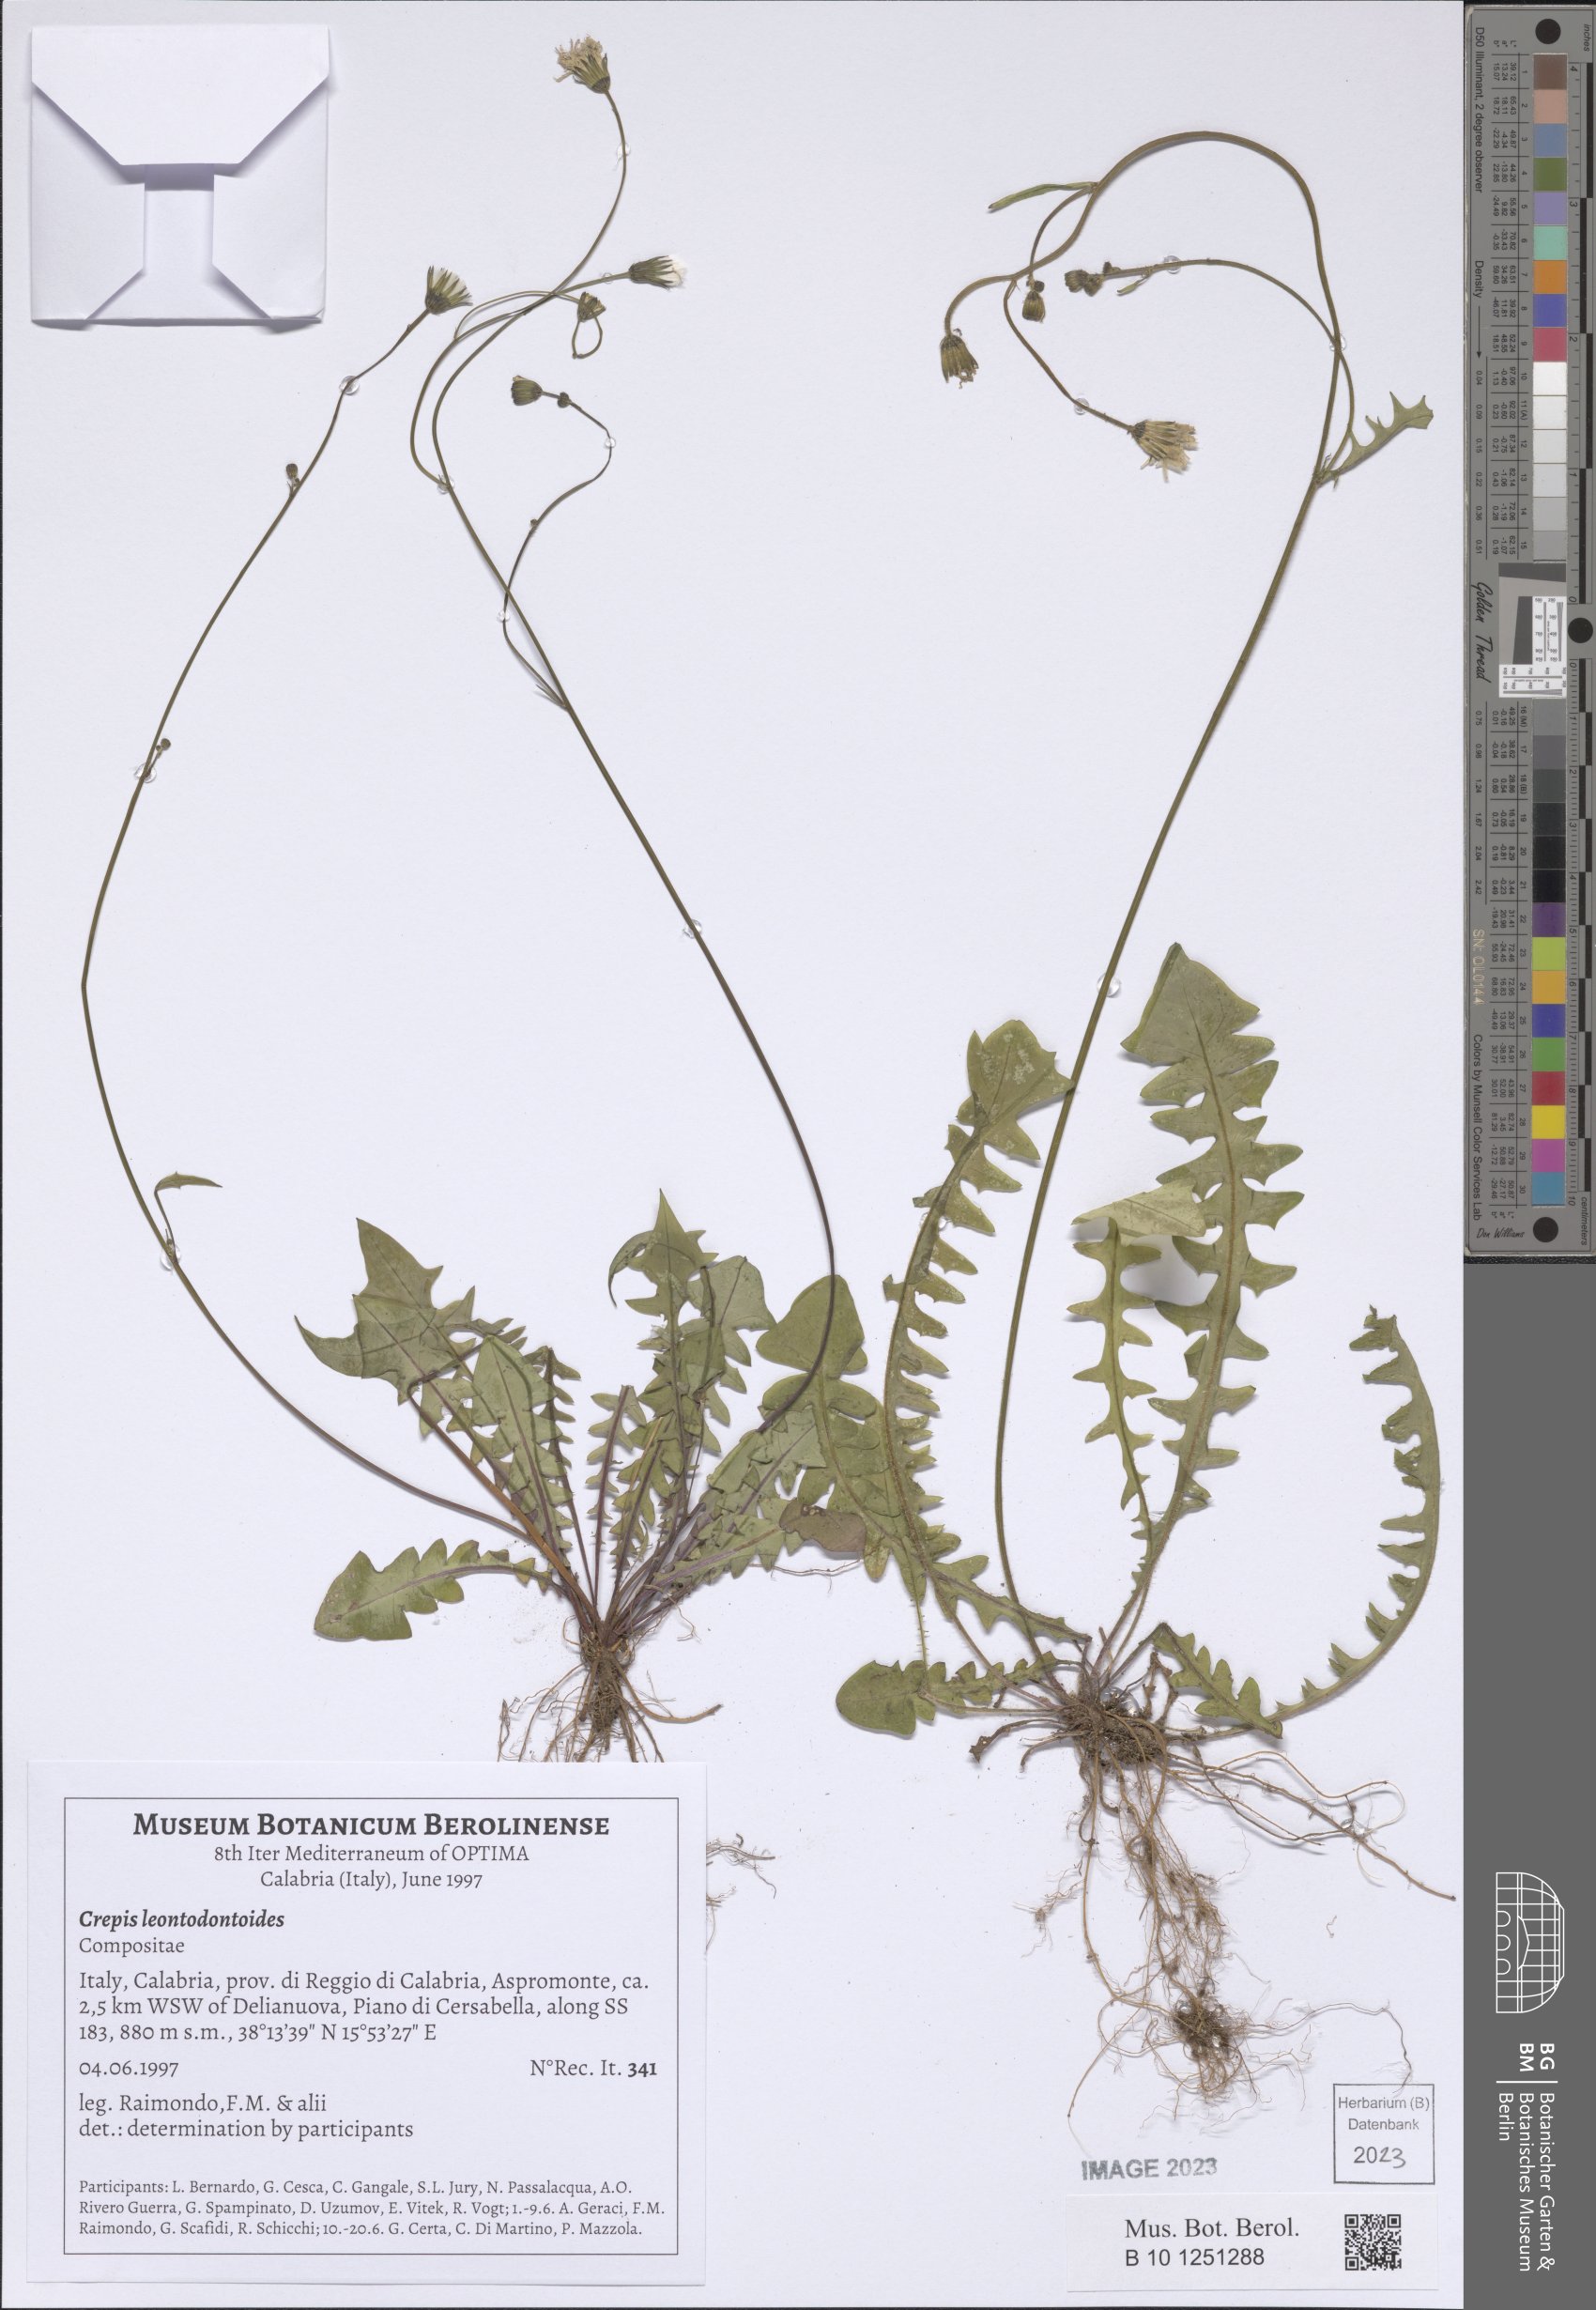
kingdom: Plantae
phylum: Tracheophyta
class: Magnoliopsida
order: Asterales
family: Asteraceae
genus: Crepis
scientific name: Crepis leontodontoides
